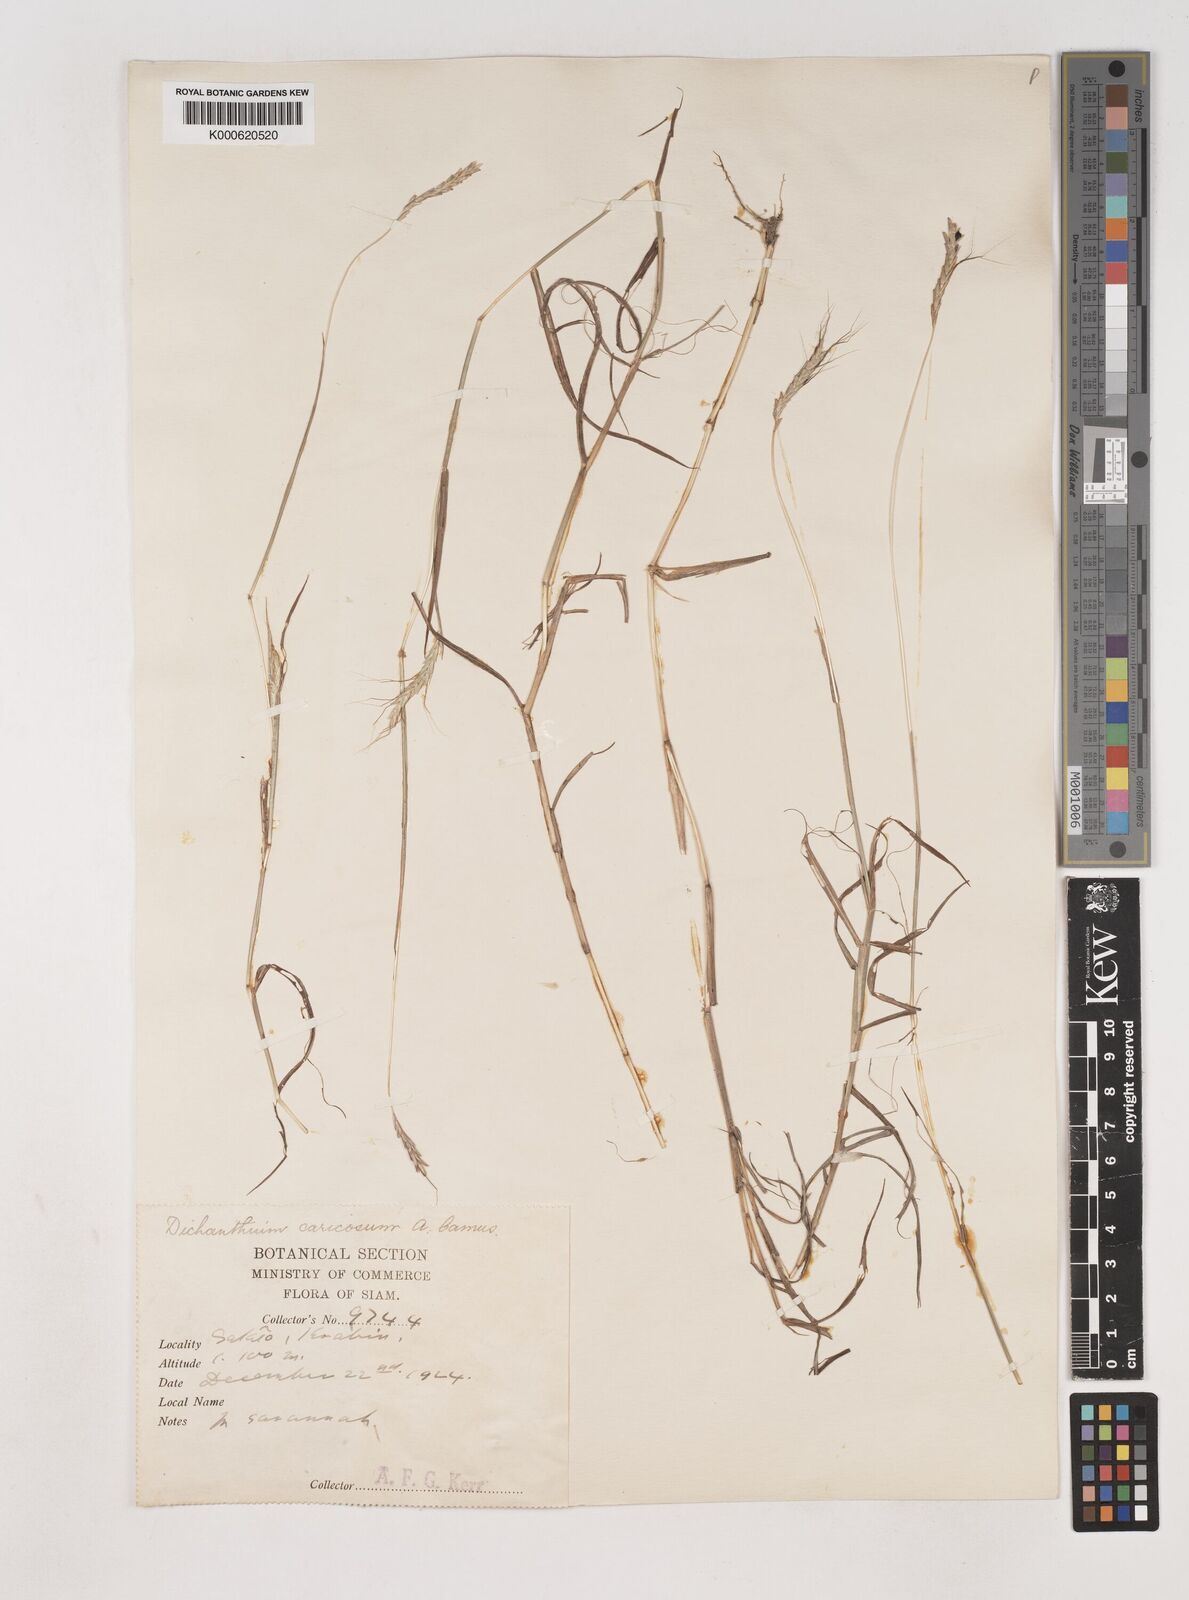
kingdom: Plantae
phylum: Tracheophyta
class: Liliopsida
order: Poales
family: Poaceae
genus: Dichanthium
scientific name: Dichanthium caricosum
